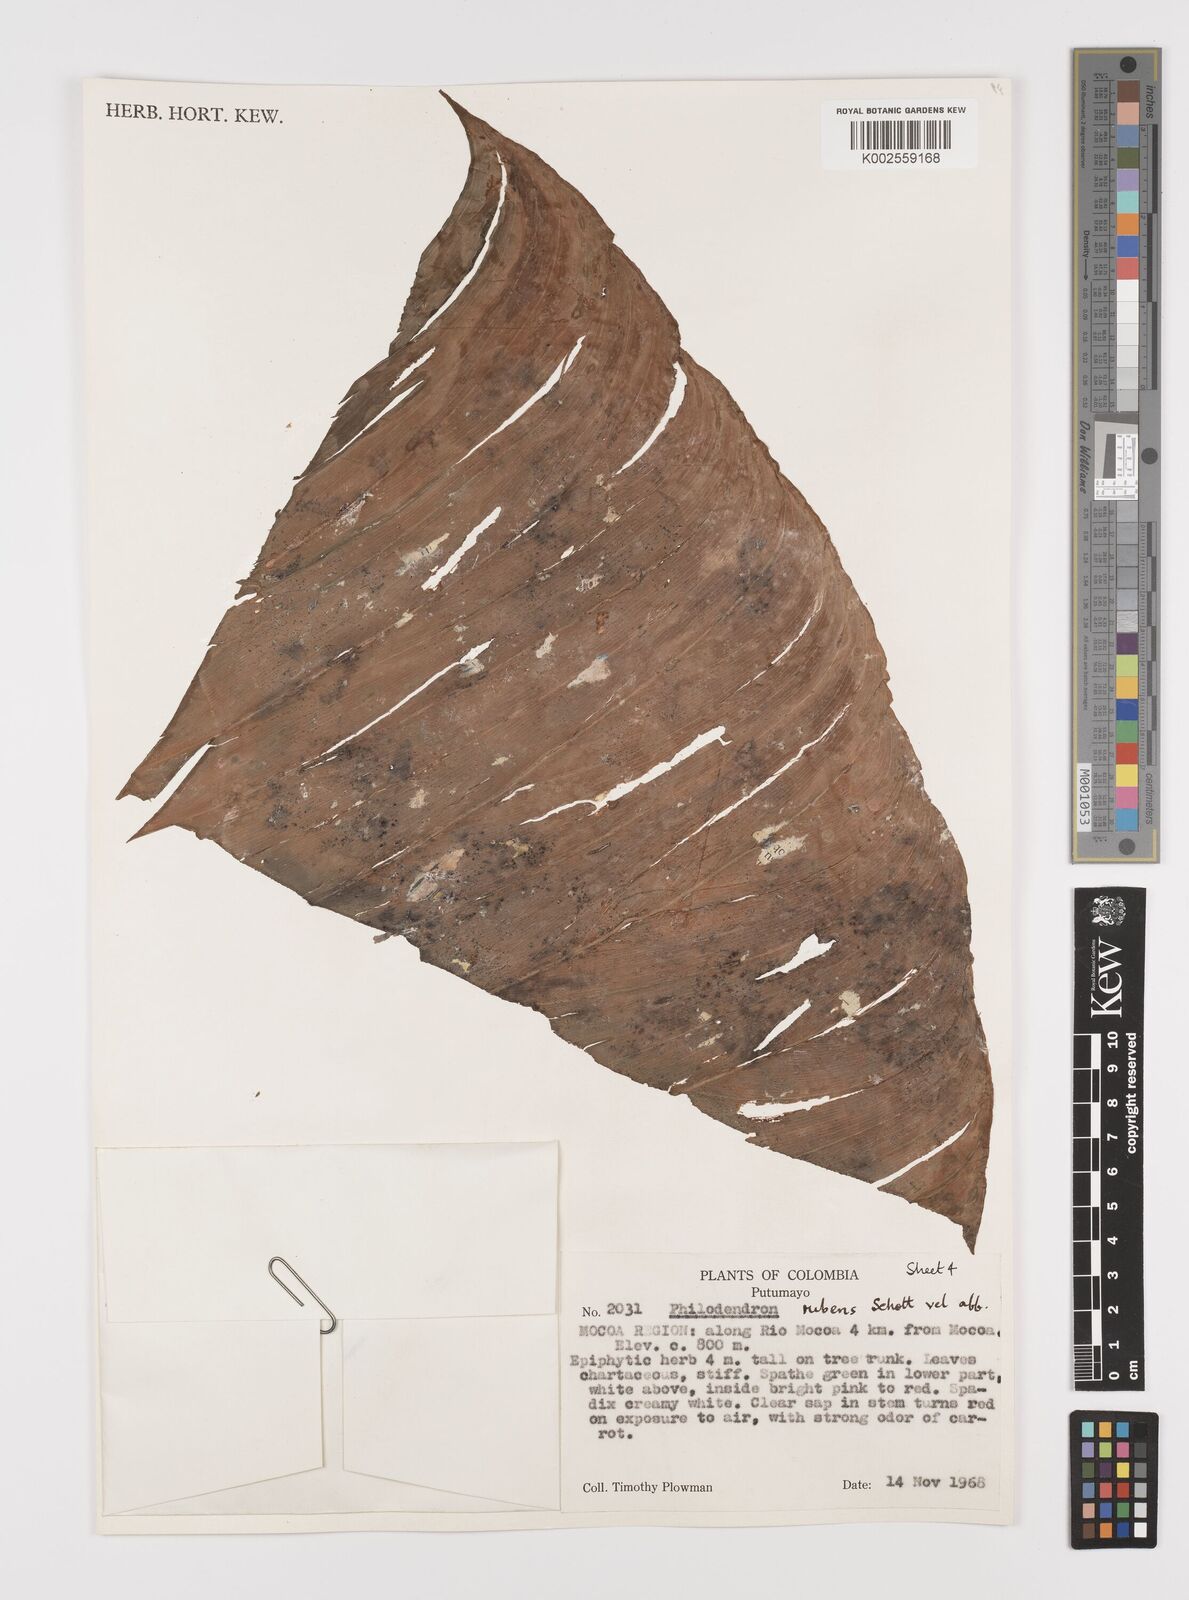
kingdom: Plantae
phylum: Tracheophyta
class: Liliopsida
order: Alismatales
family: Araceae
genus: Philodendron
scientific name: Philodendron ornatum
